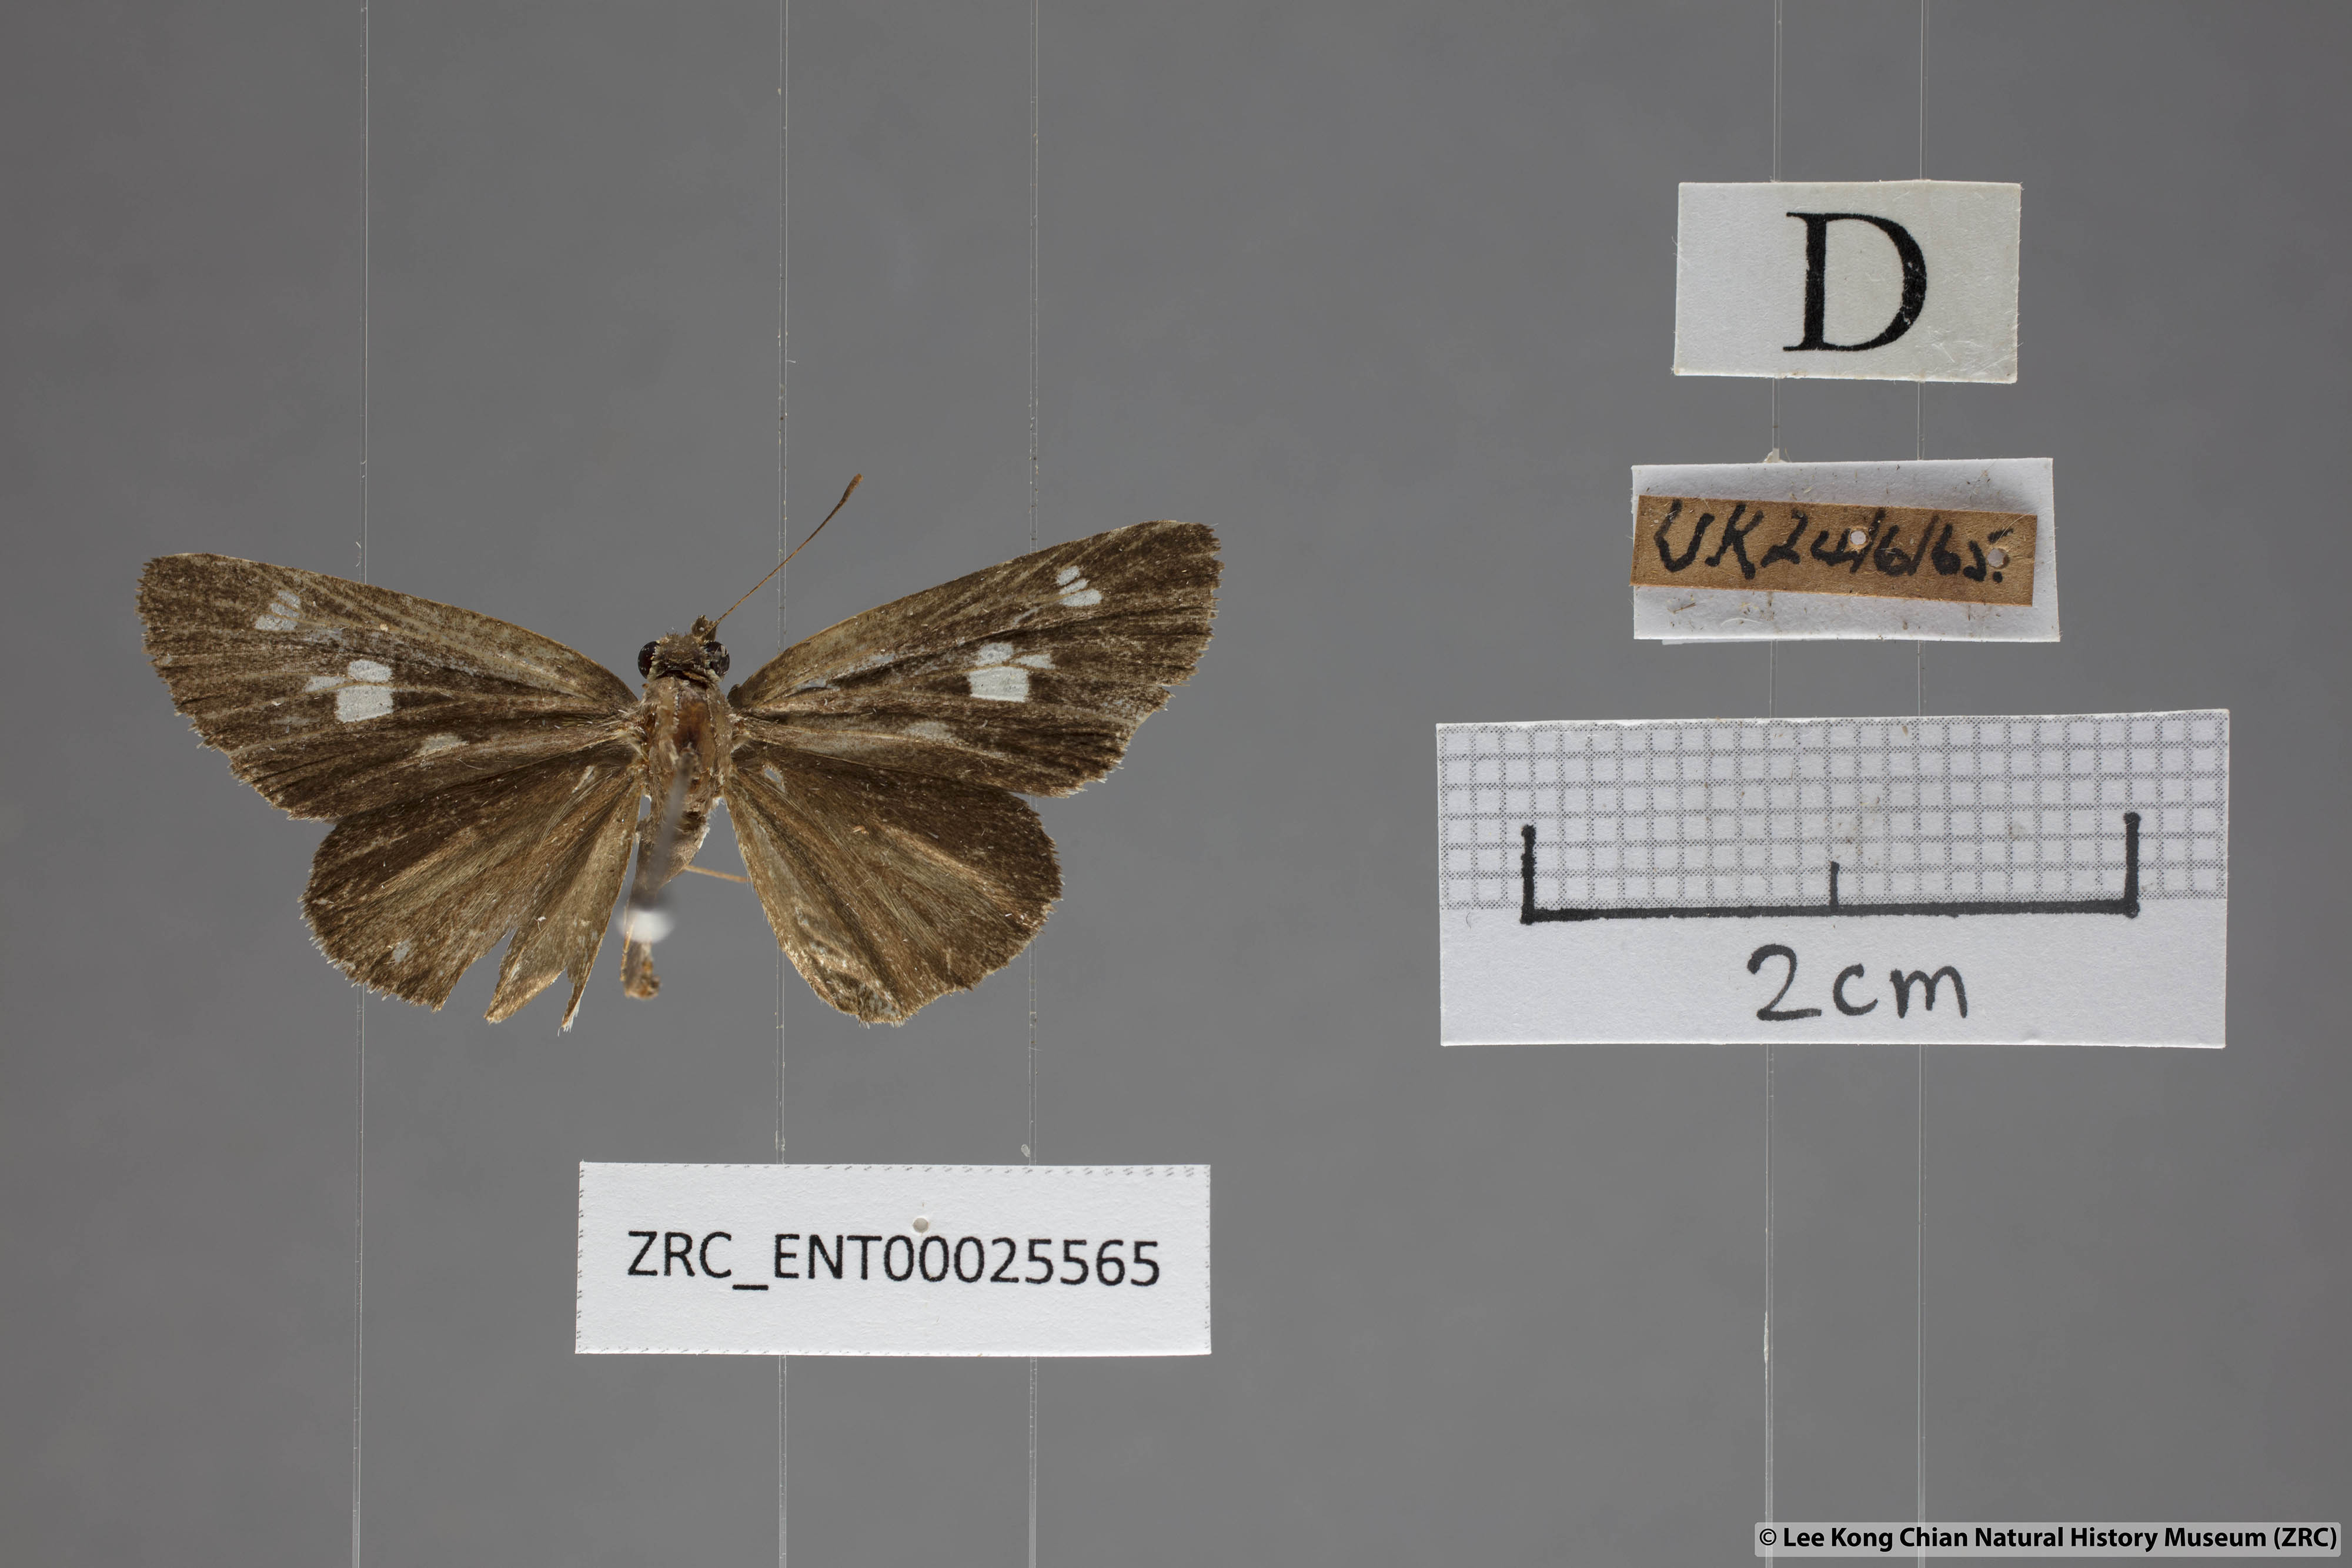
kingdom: Animalia
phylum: Arthropoda
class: Insecta
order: Lepidoptera
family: Hesperiidae
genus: Suada
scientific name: Suada swerga
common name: Grass bob
